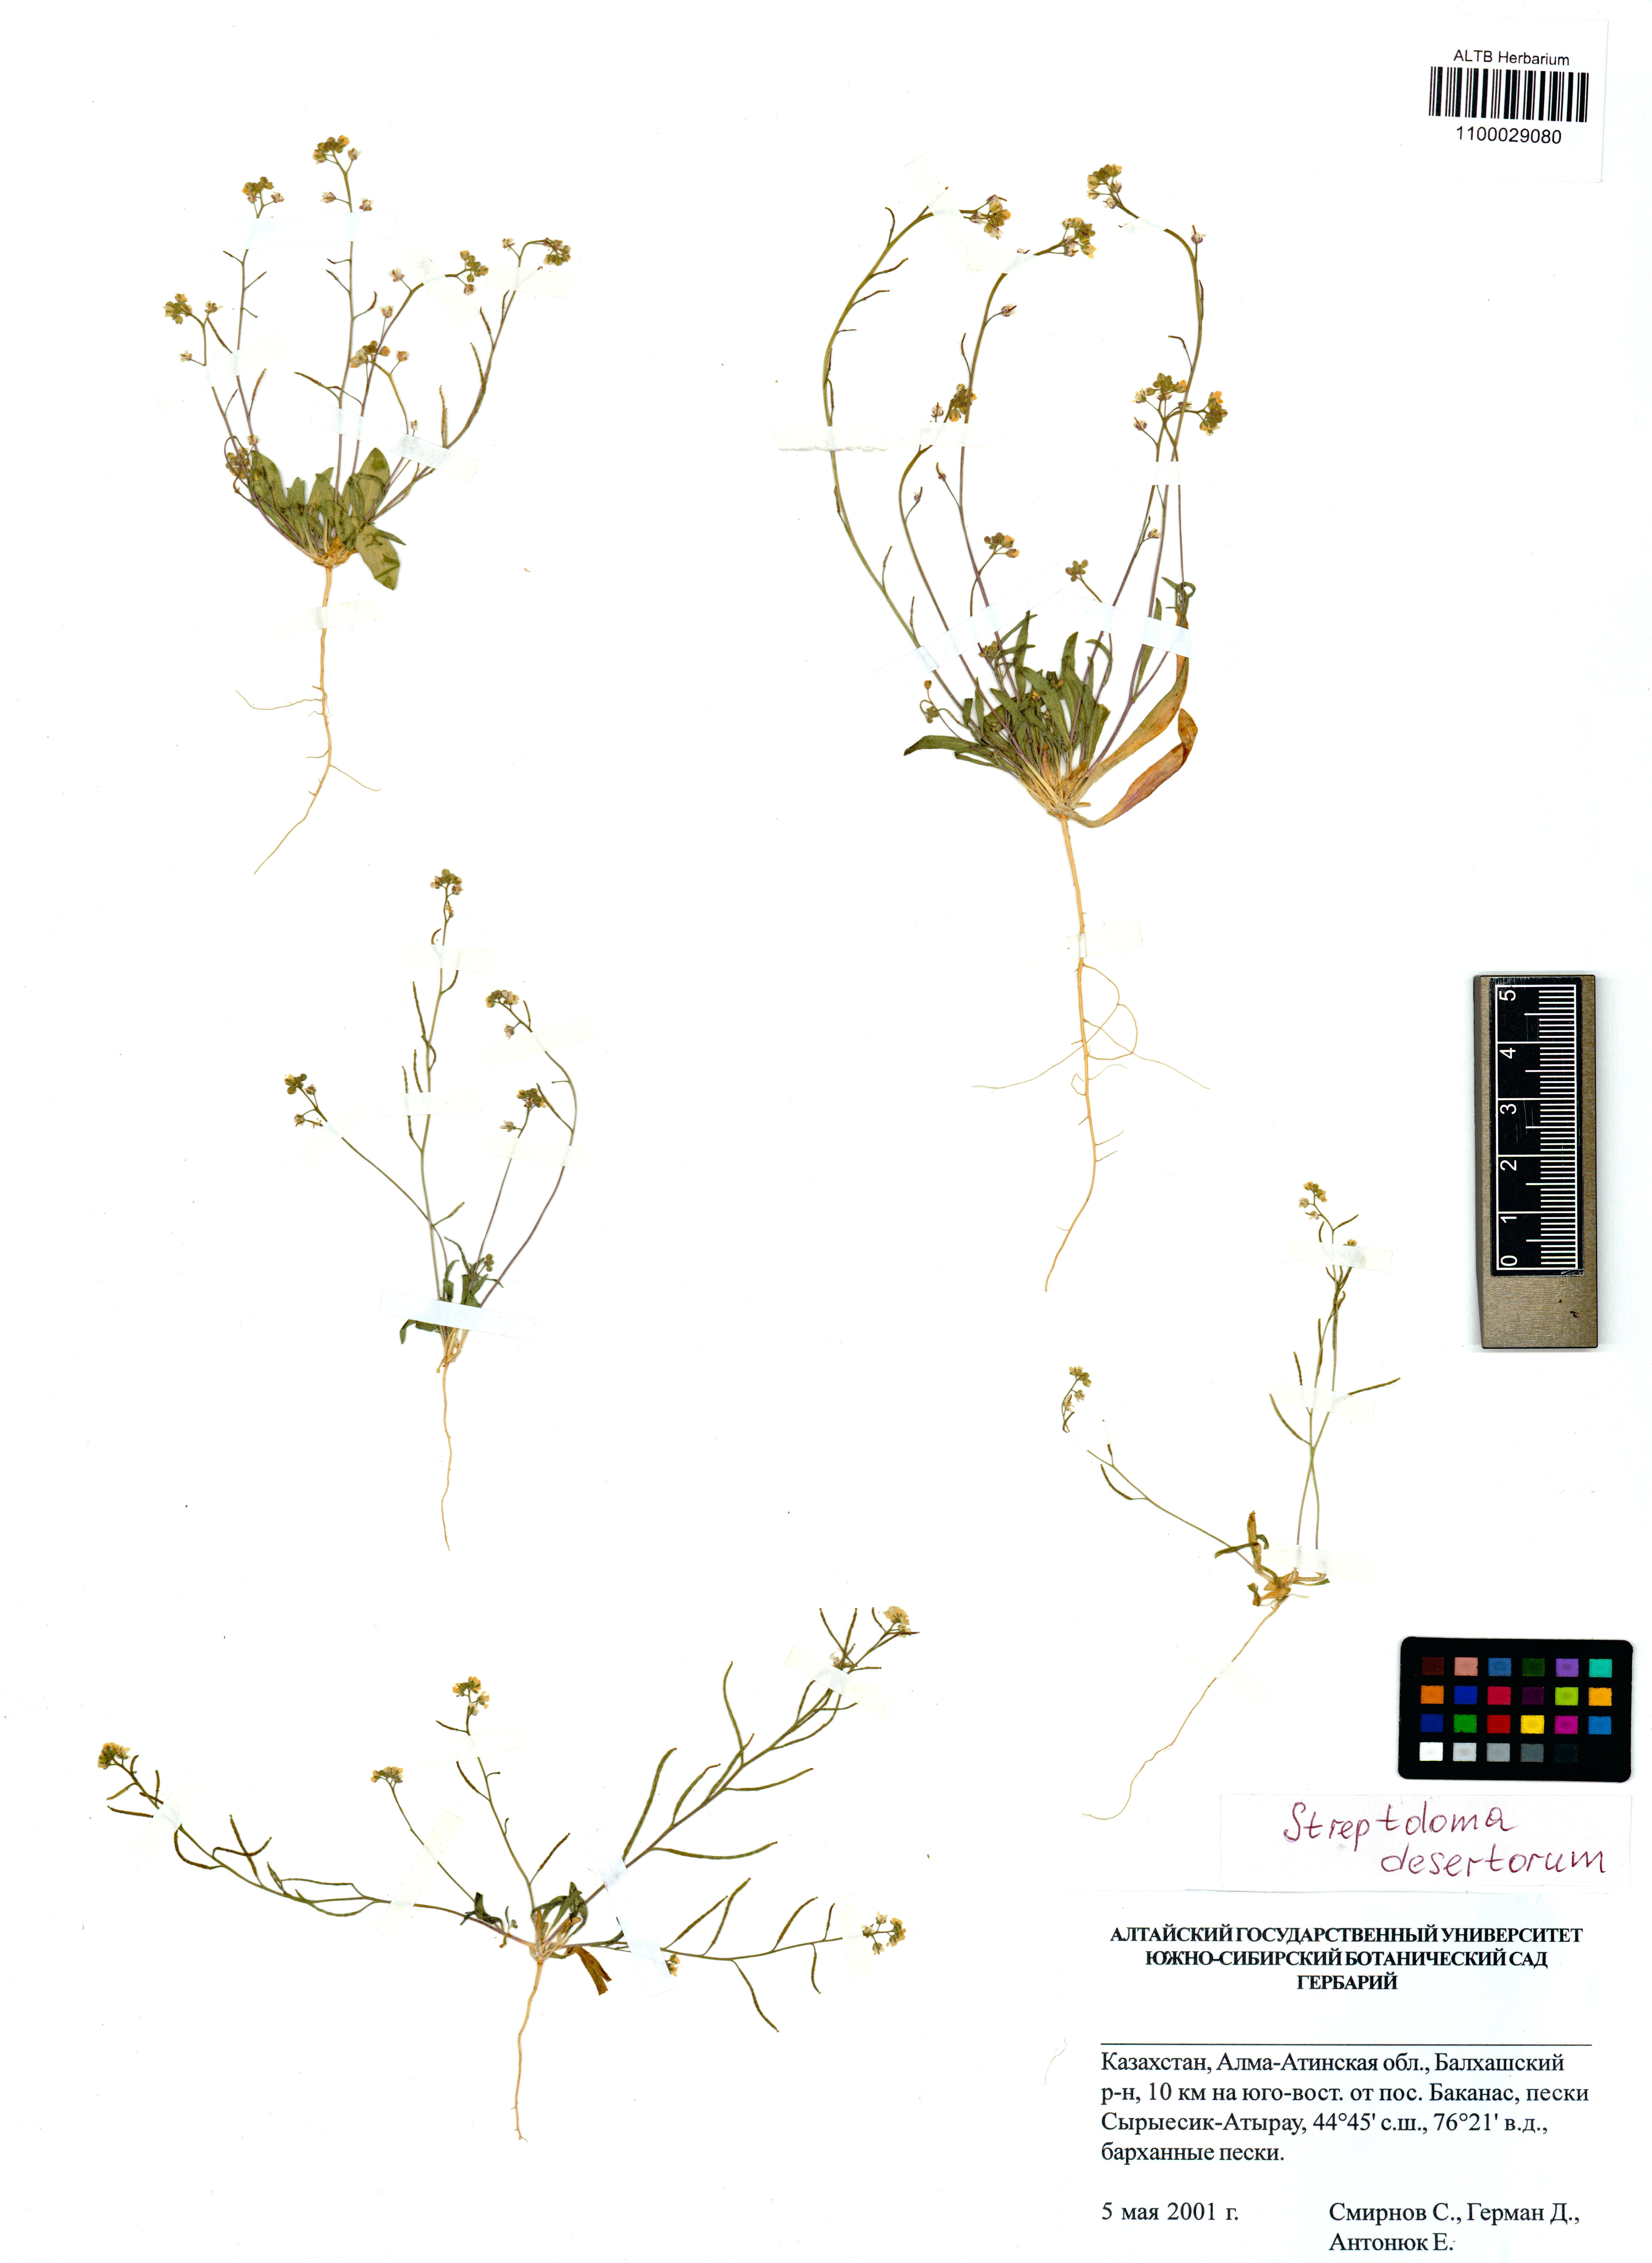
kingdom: Plantae
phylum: Tracheophyta
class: Magnoliopsida
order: Brassicales
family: Brassicaceae
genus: Streptoloma
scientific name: Streptoloma desertorum
